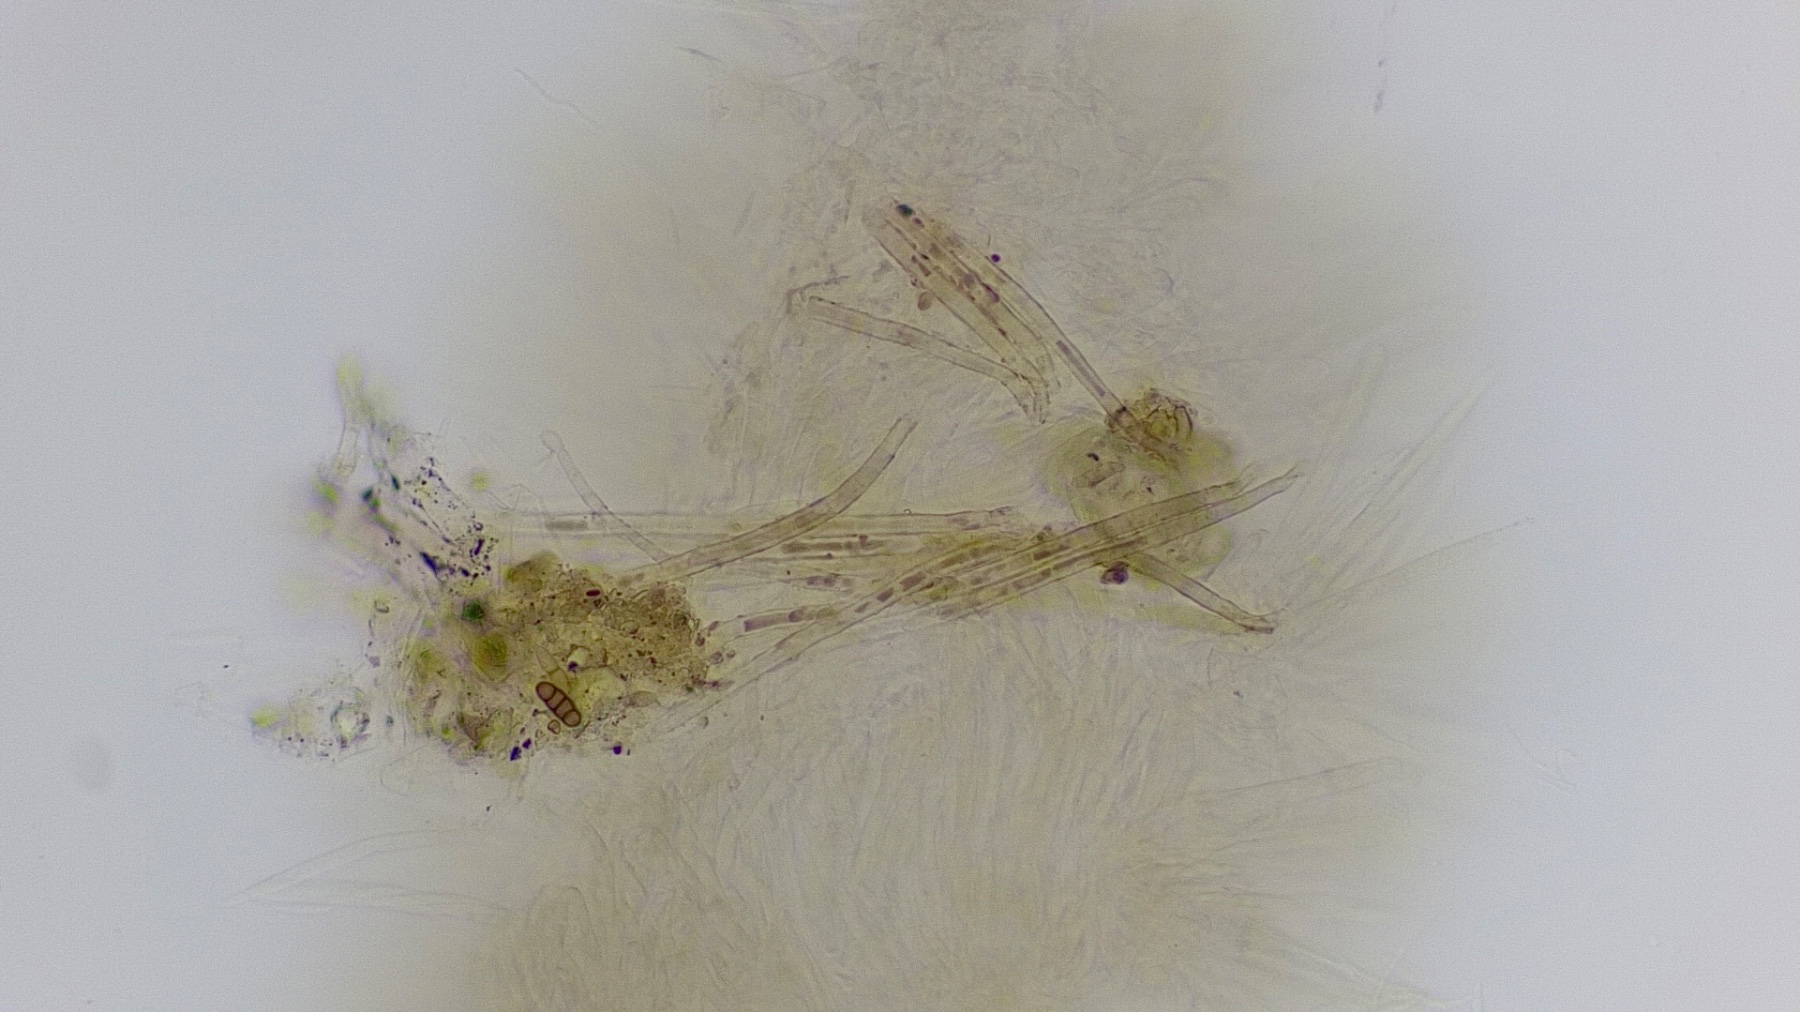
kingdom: Fungi
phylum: Ascomycota
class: Leotiomycetes
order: Helotiales
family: Lachnaceae
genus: Lachnum
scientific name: Lachnum sulphureum
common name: svovlhåret frynseskive
